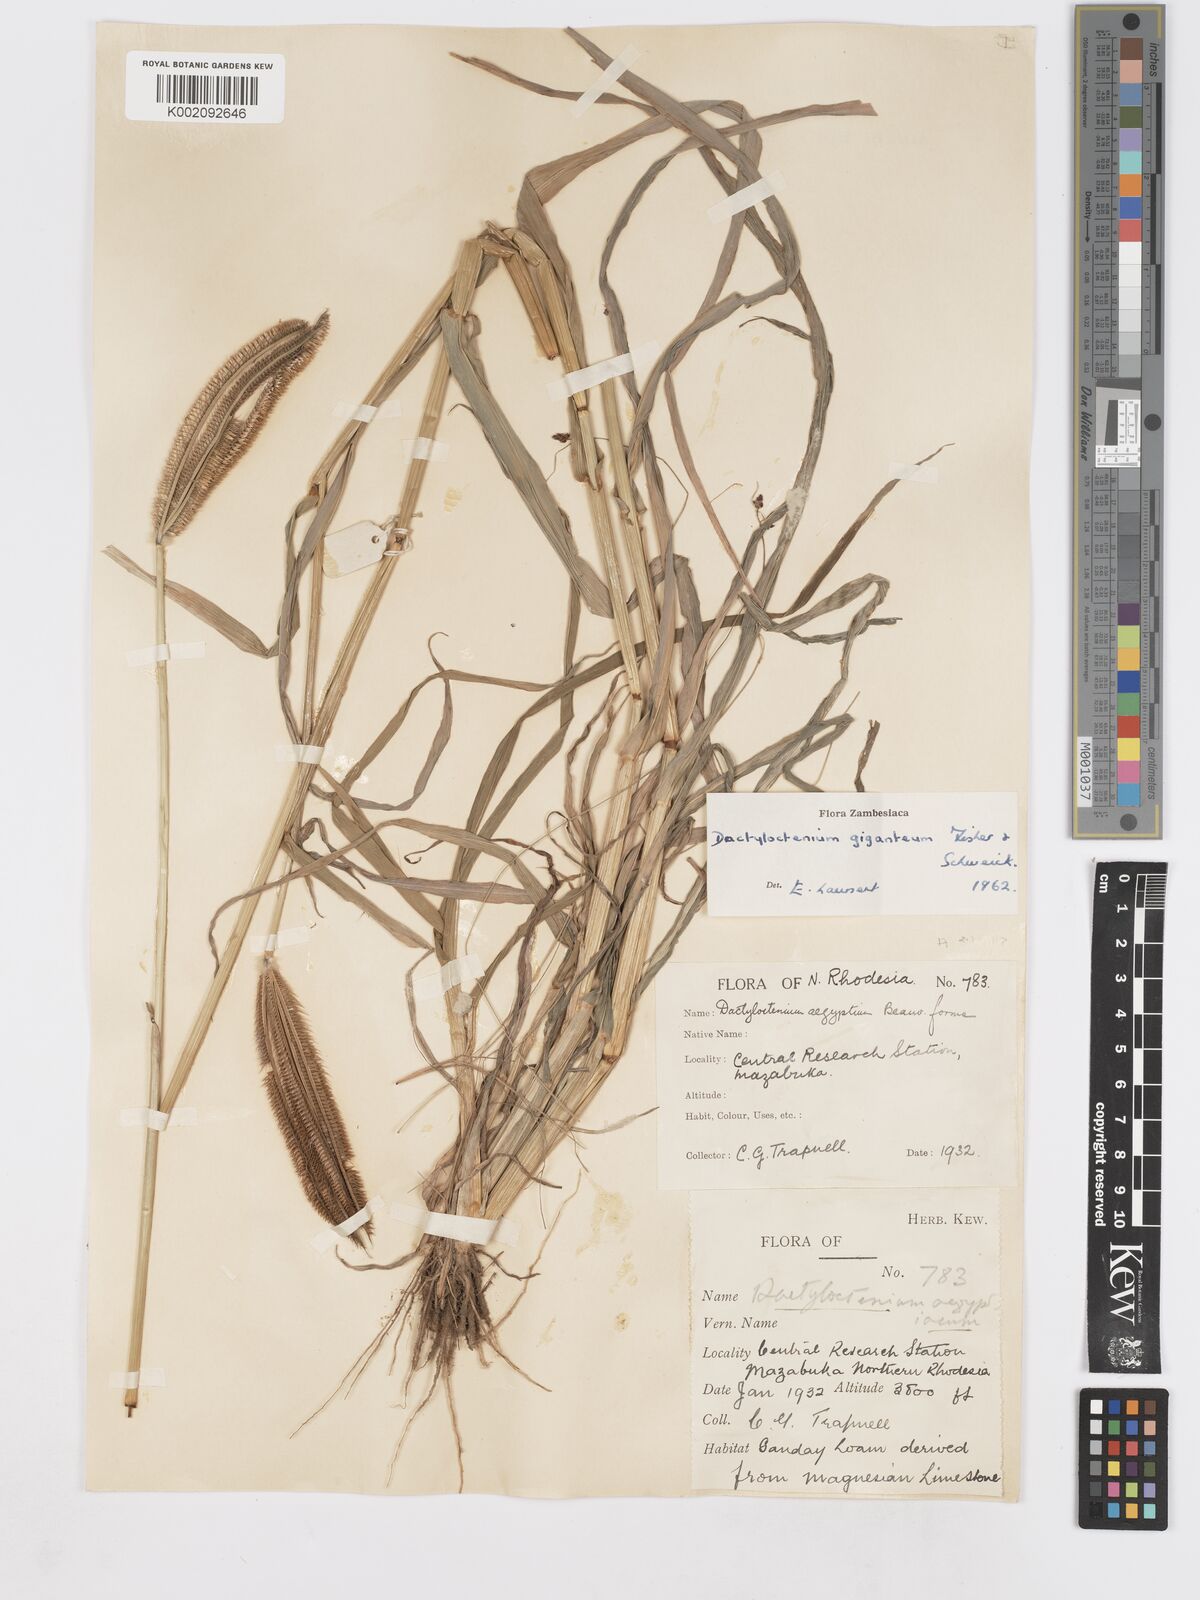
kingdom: Plantae
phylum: Tracheophyta
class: Liliopsida
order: Poales
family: Poaceae
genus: Dactyloctenium
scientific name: Dactyloctenium giganteum
